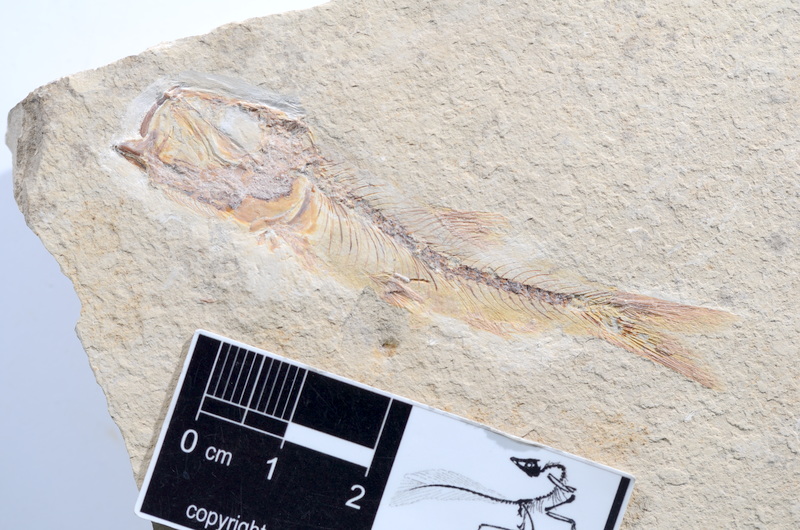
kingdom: Animalia
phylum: Chordata
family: Ascalaboidae
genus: Ascalabos
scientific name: Ascalabos voithii
